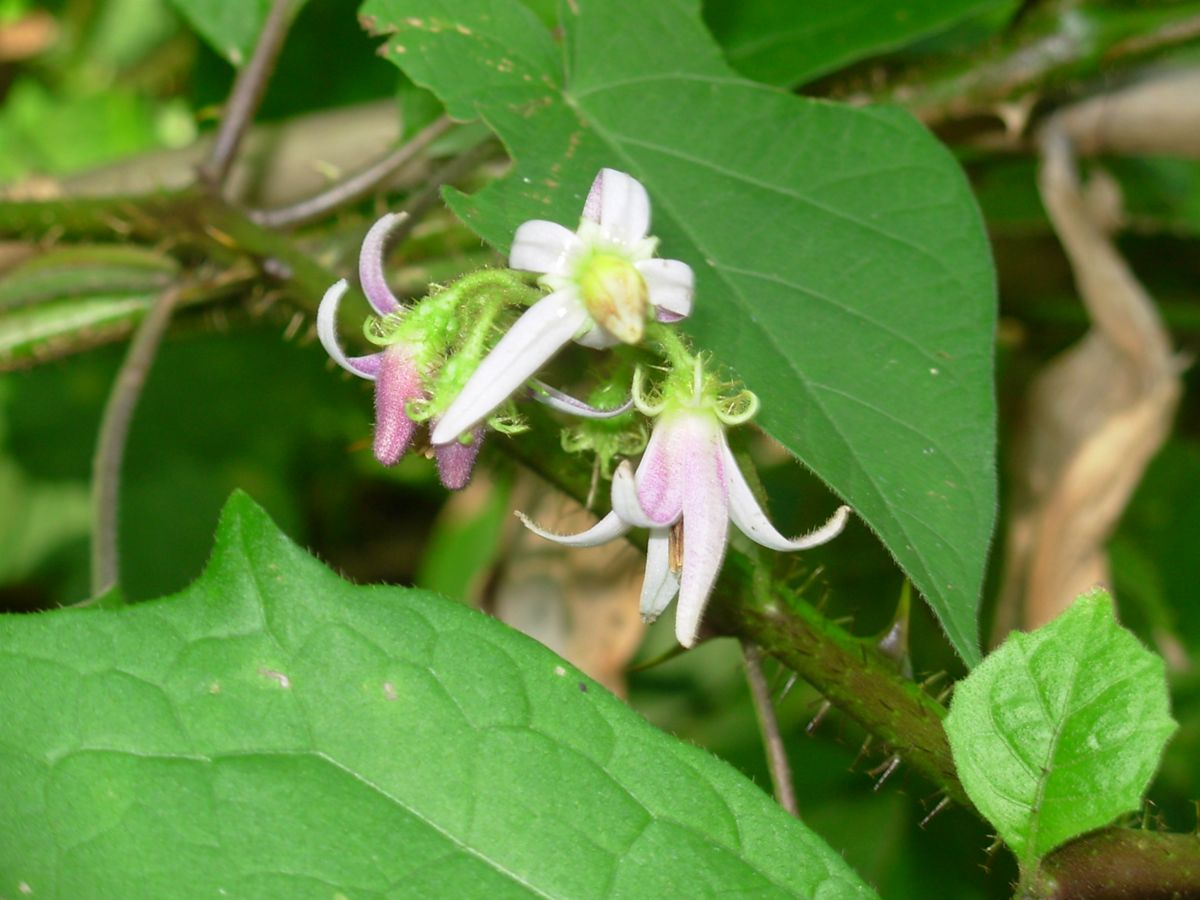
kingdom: Plantae
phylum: Tracheophyta
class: Magnoliopsida
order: Solanales
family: Solanaceae
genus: Solanum
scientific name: Solanum volubile
